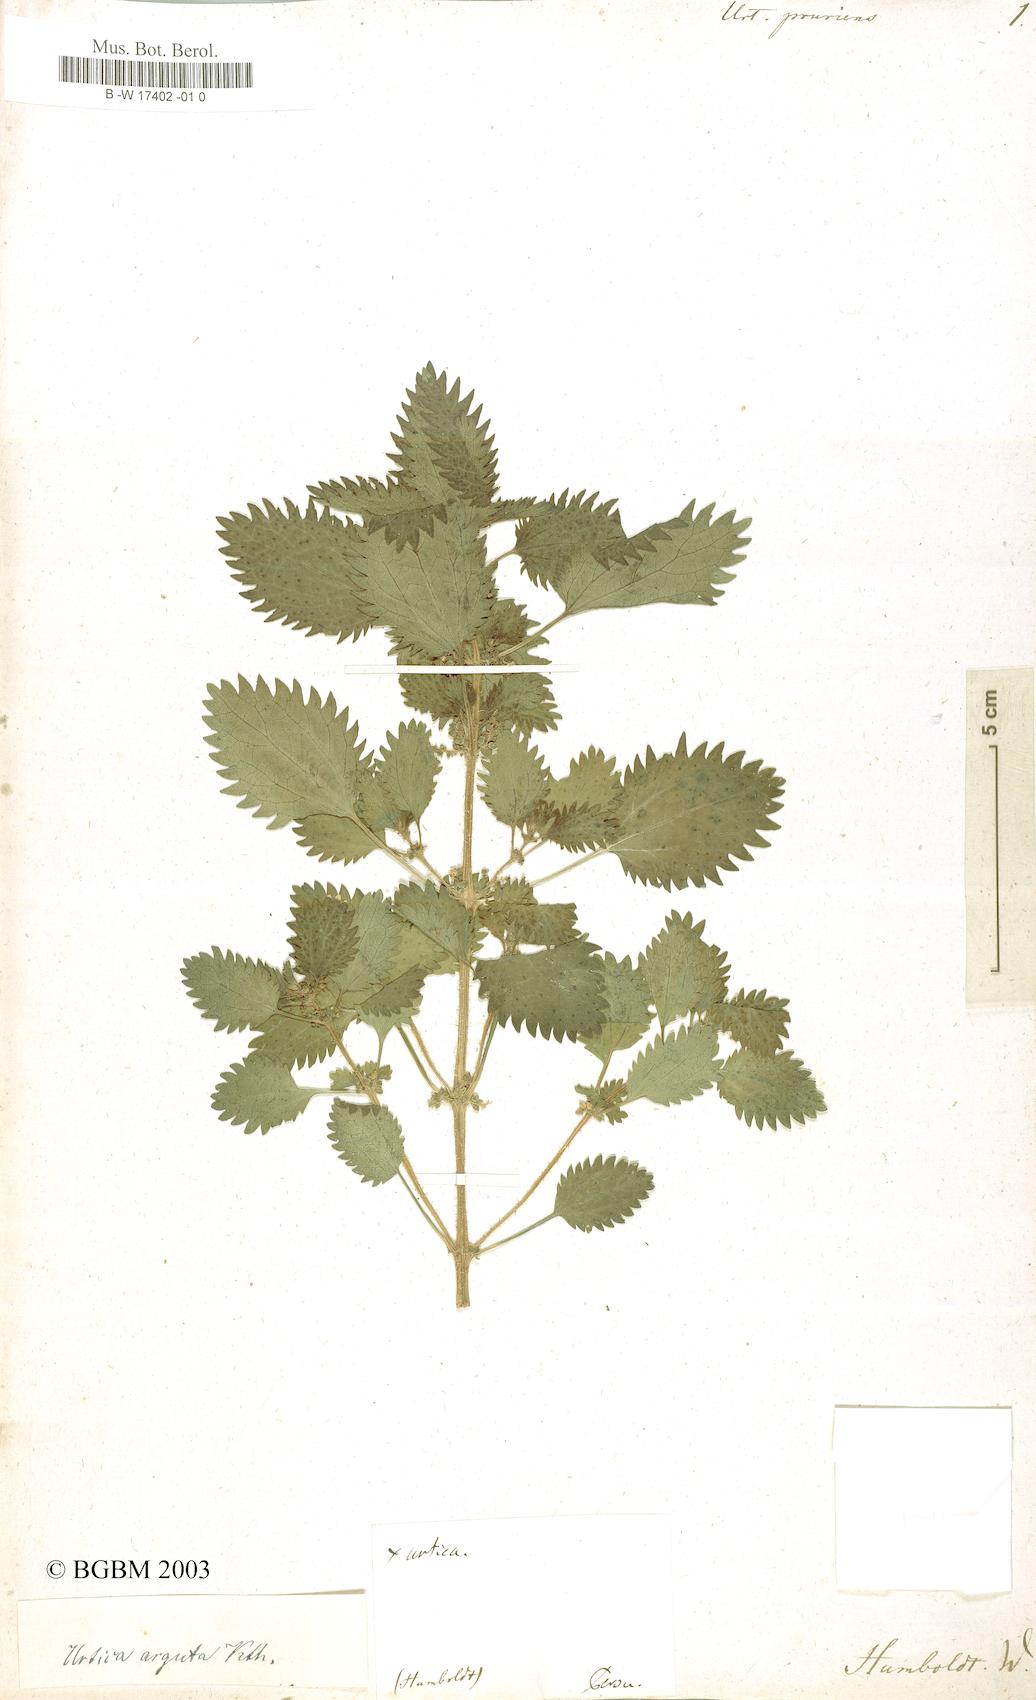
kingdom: Plantae
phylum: Tracheophyta
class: Magnoliopsida
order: Rosales
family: Urticaceae
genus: Urtica
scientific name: Urtica
